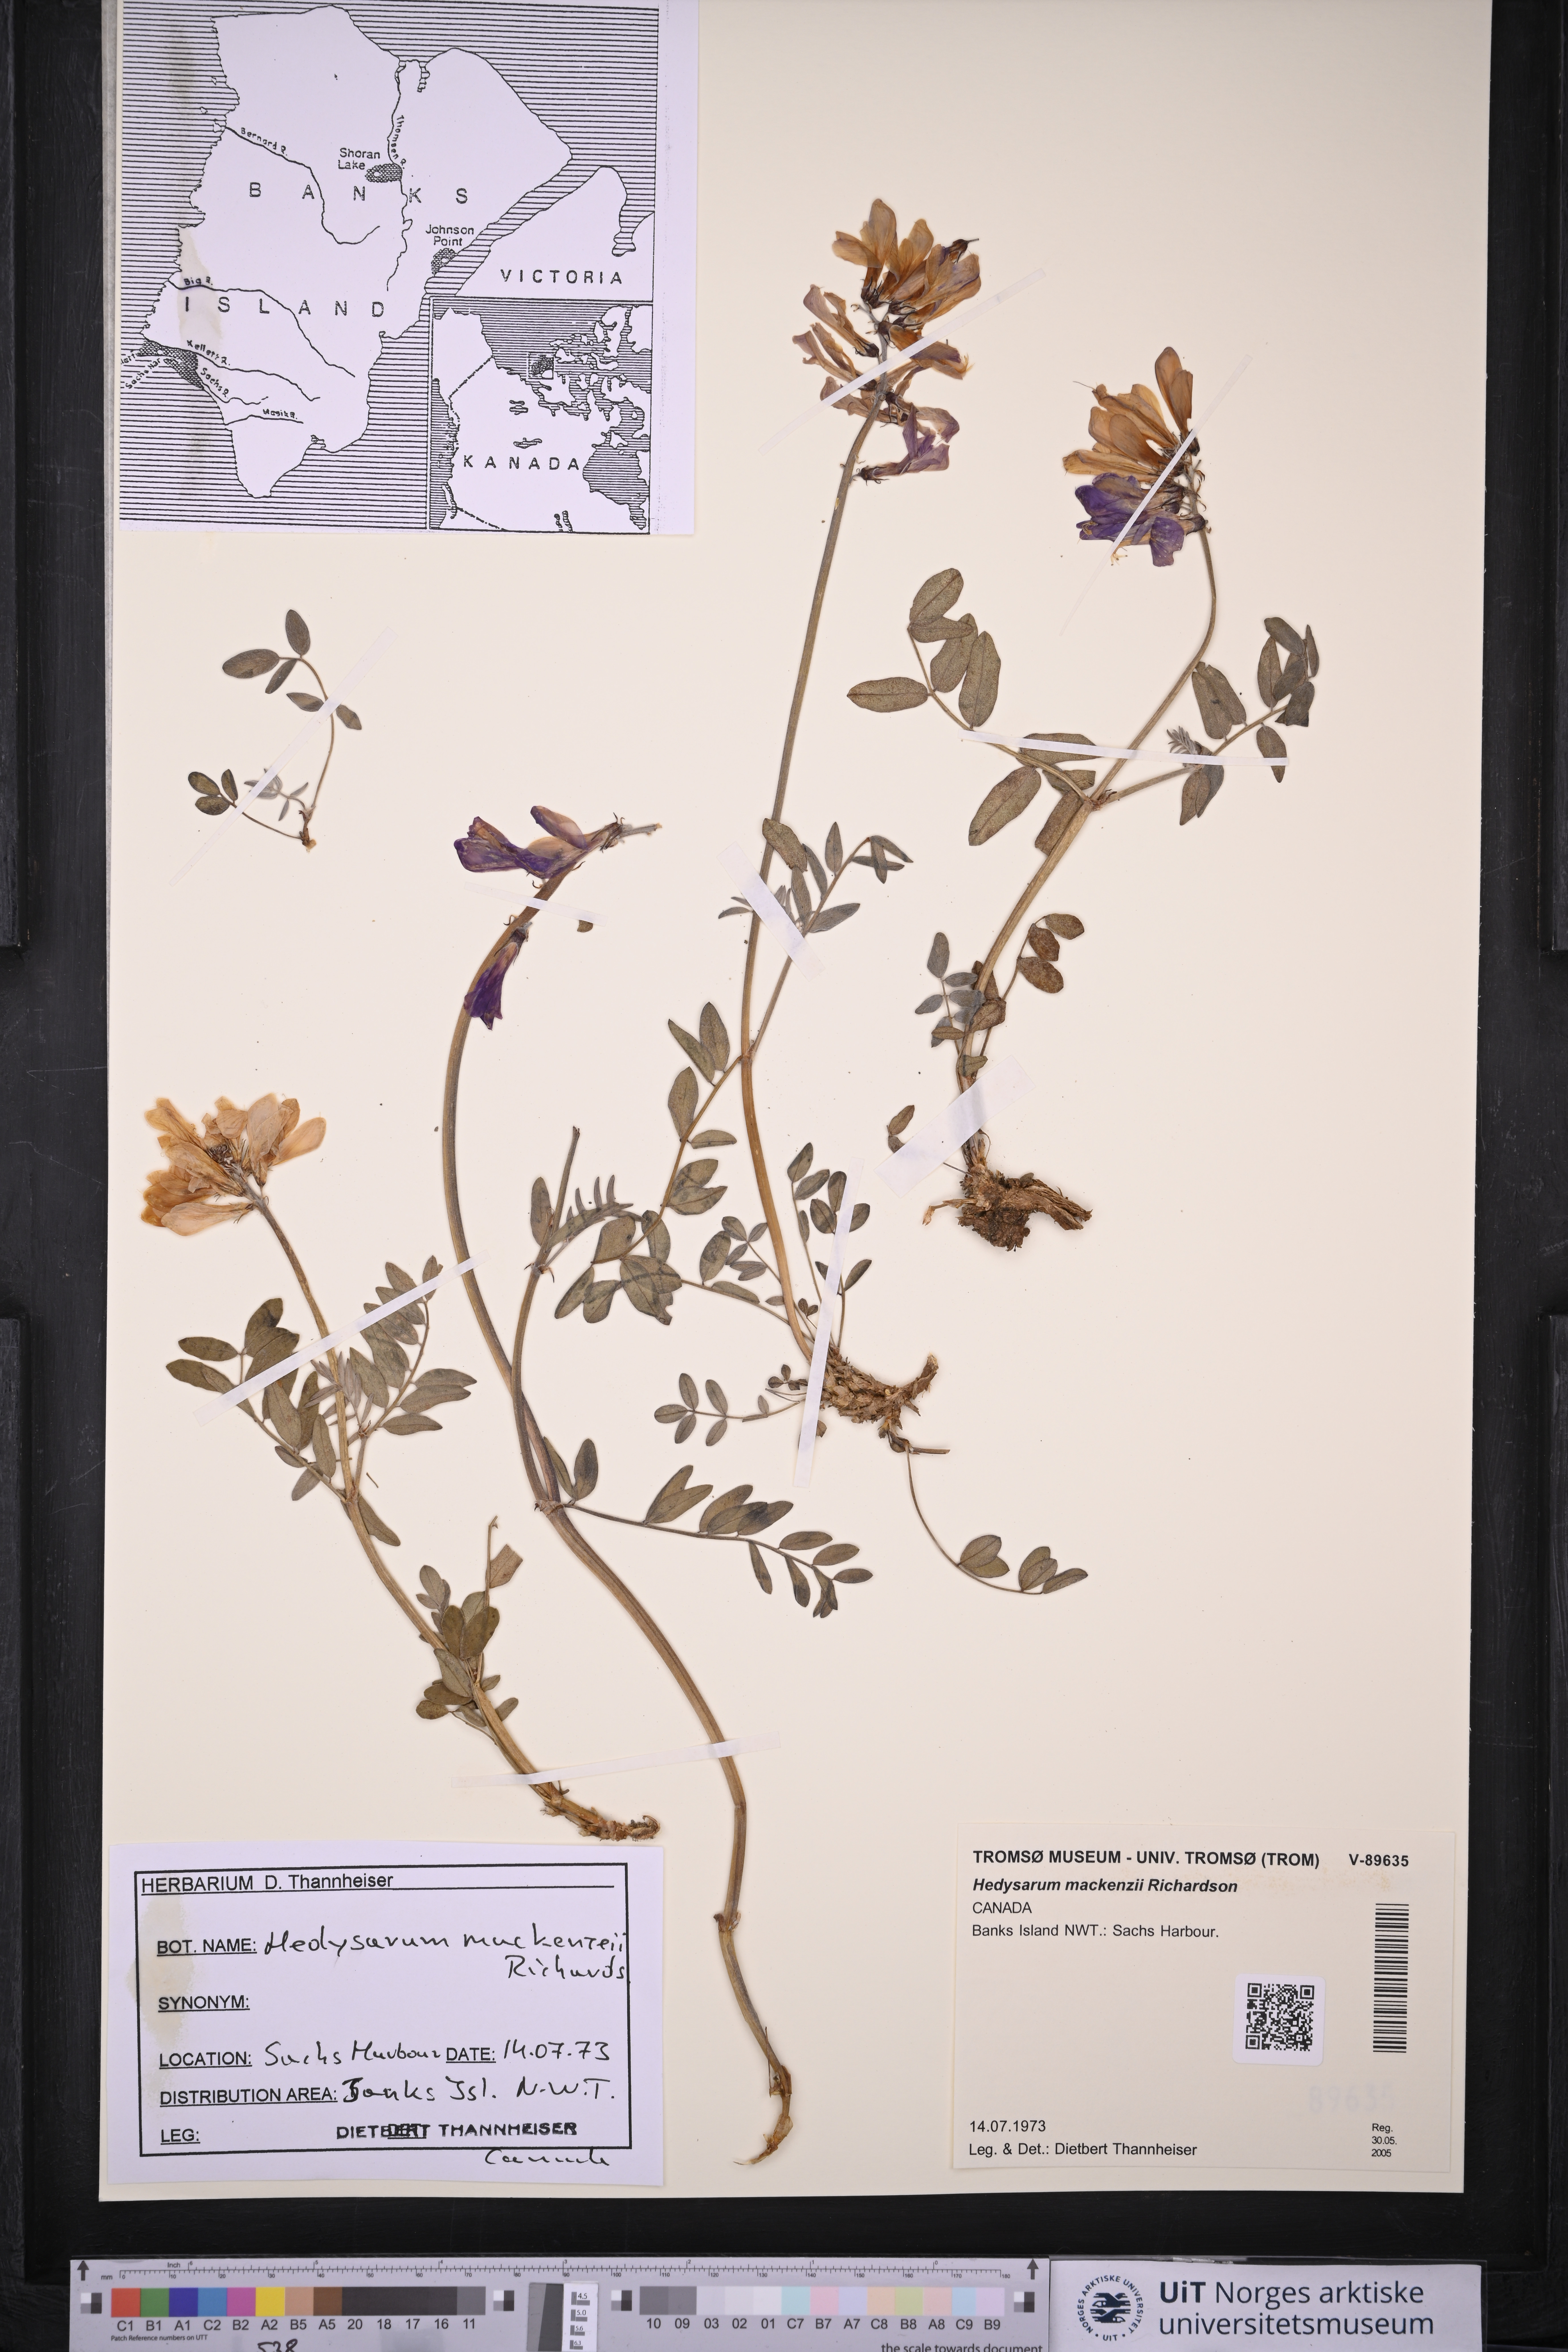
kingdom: Plantae
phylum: Tracheophyta
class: Magnoliopsida
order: Fabales
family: Fabaceae
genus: Hedysarum
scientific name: Hedysarum boreale
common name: Northern sweet-vetch
